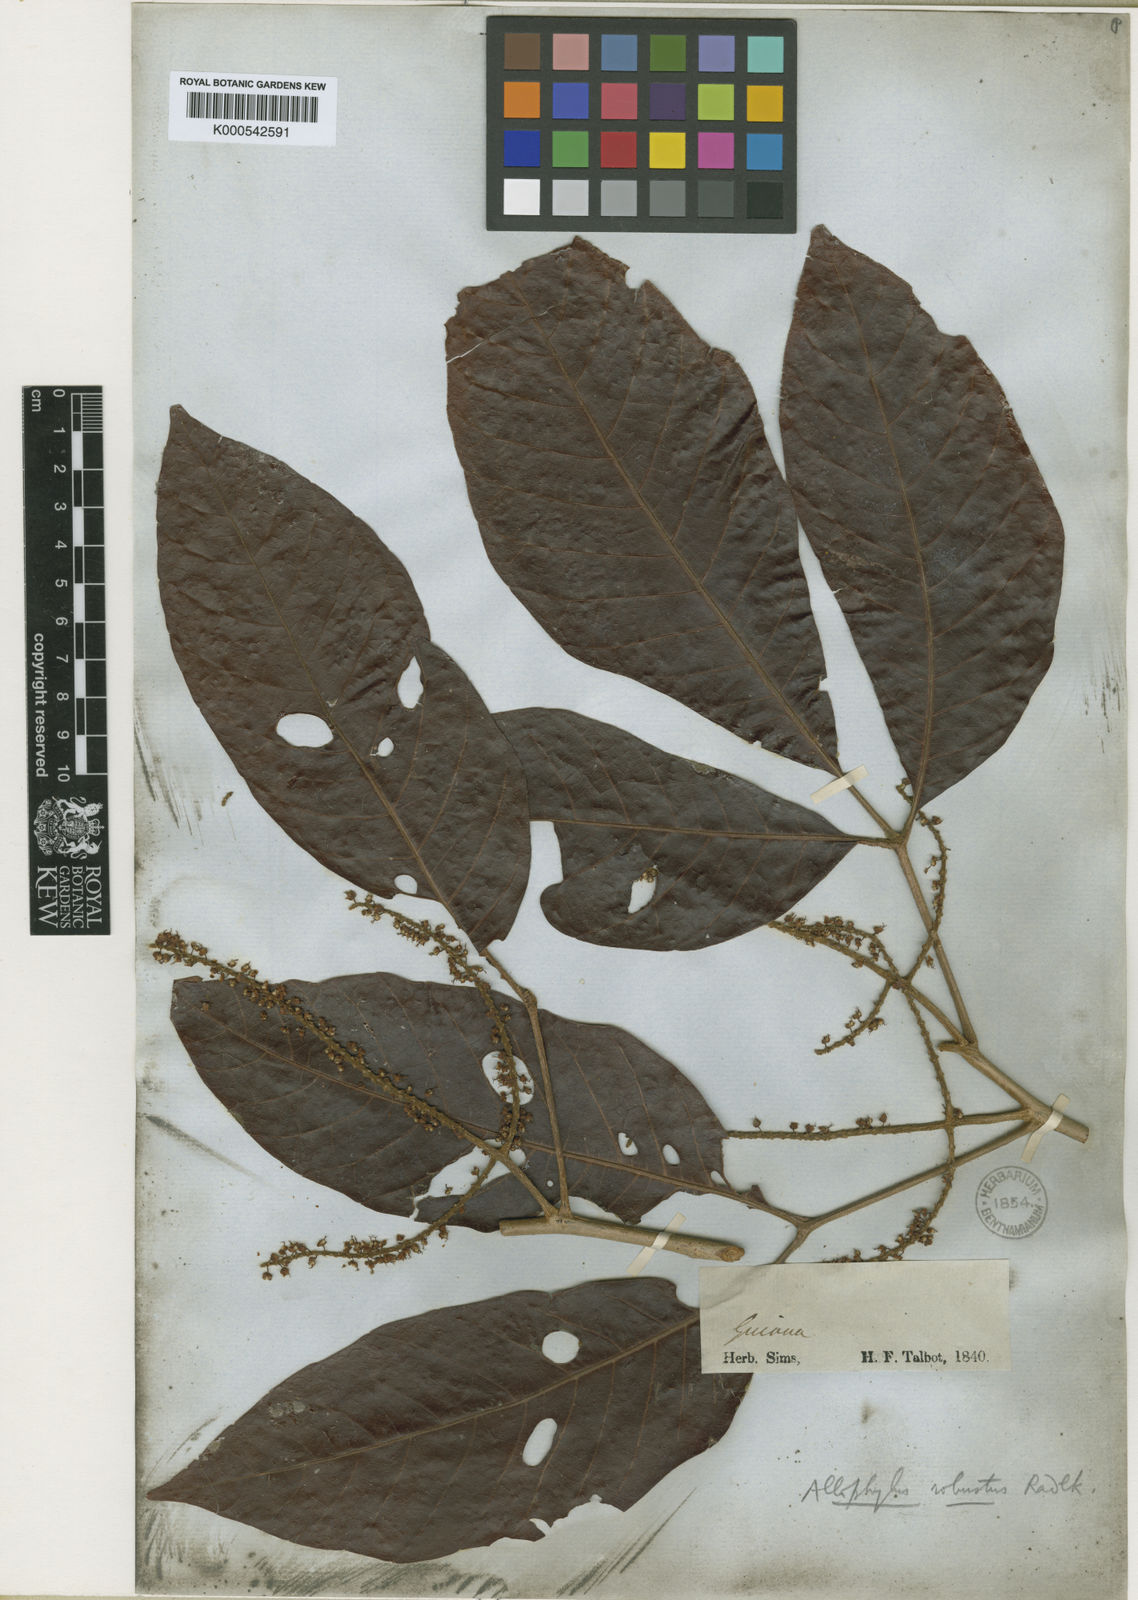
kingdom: Plantae
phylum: Tracheophyta
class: Magnoliopsida
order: Sapindales
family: Sapindaceae
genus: Allophylus
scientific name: Allophylus
